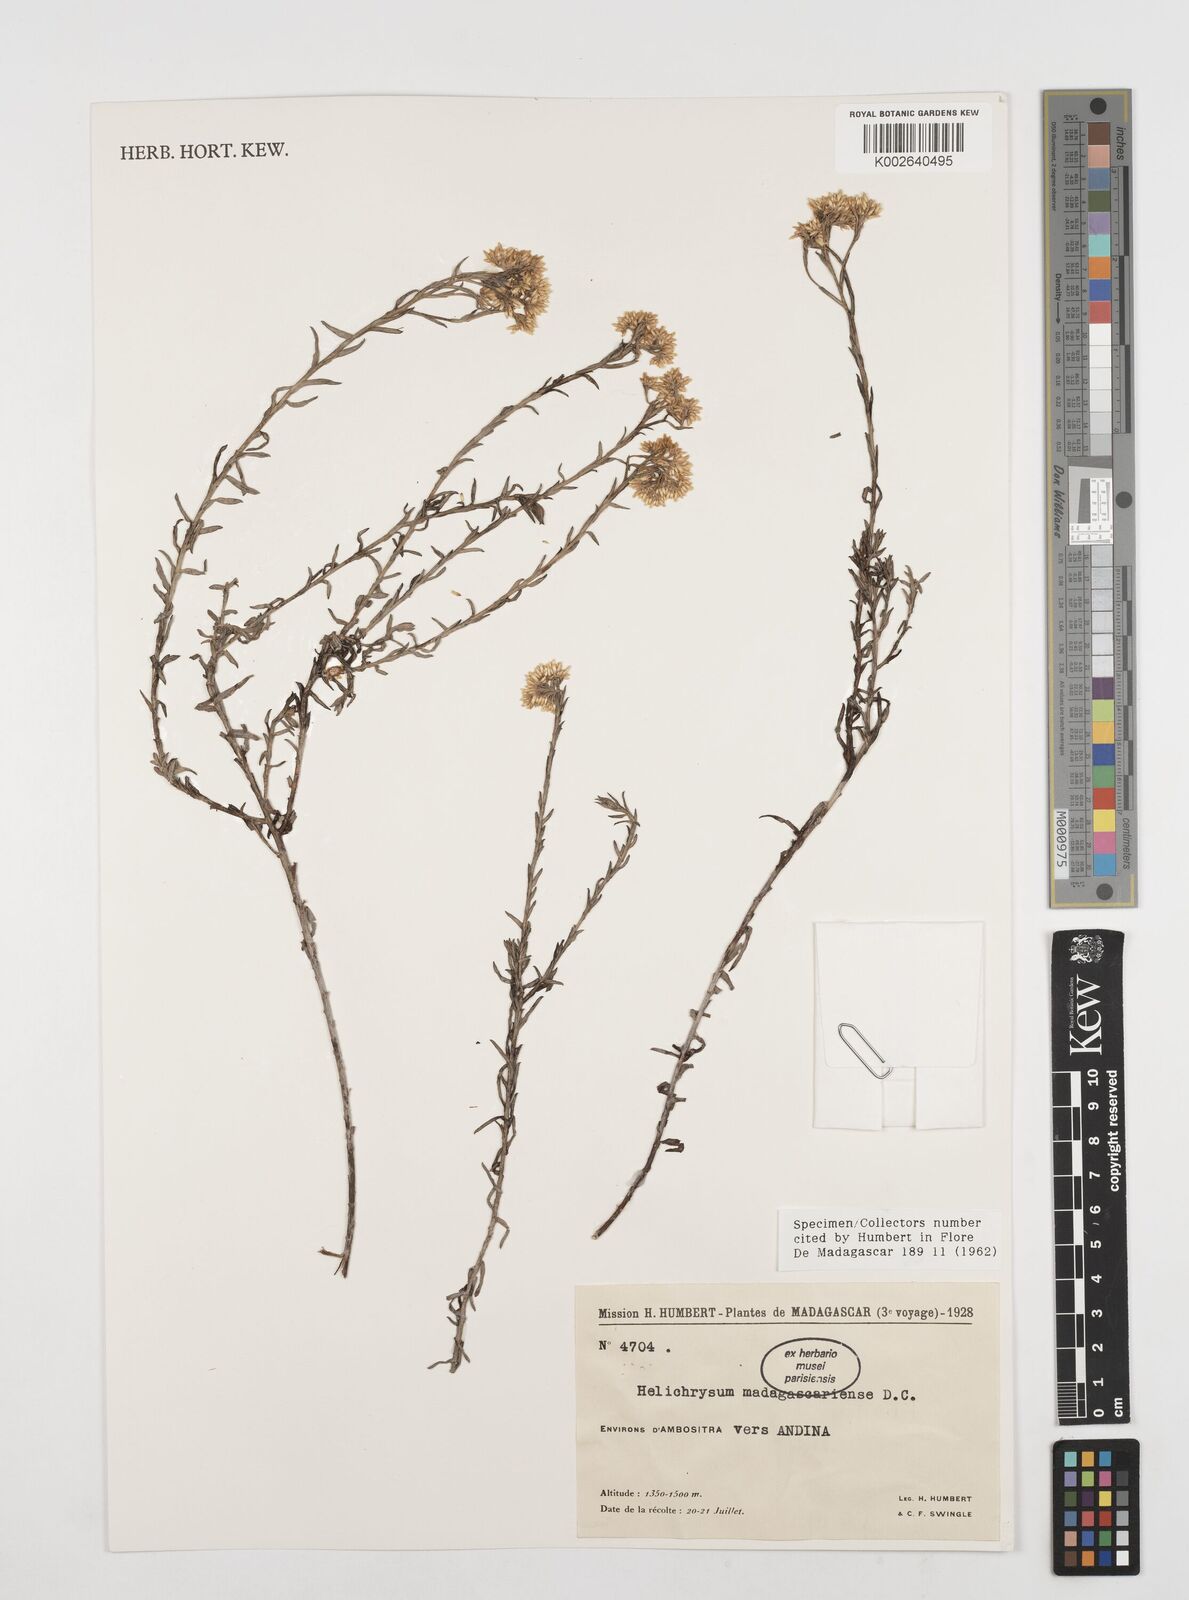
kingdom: Plantae
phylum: Tracheophyta
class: Magnoliopsida
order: Asterales
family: Asteraceae
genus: Helichrysum
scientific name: Helichrysum madagascariense
